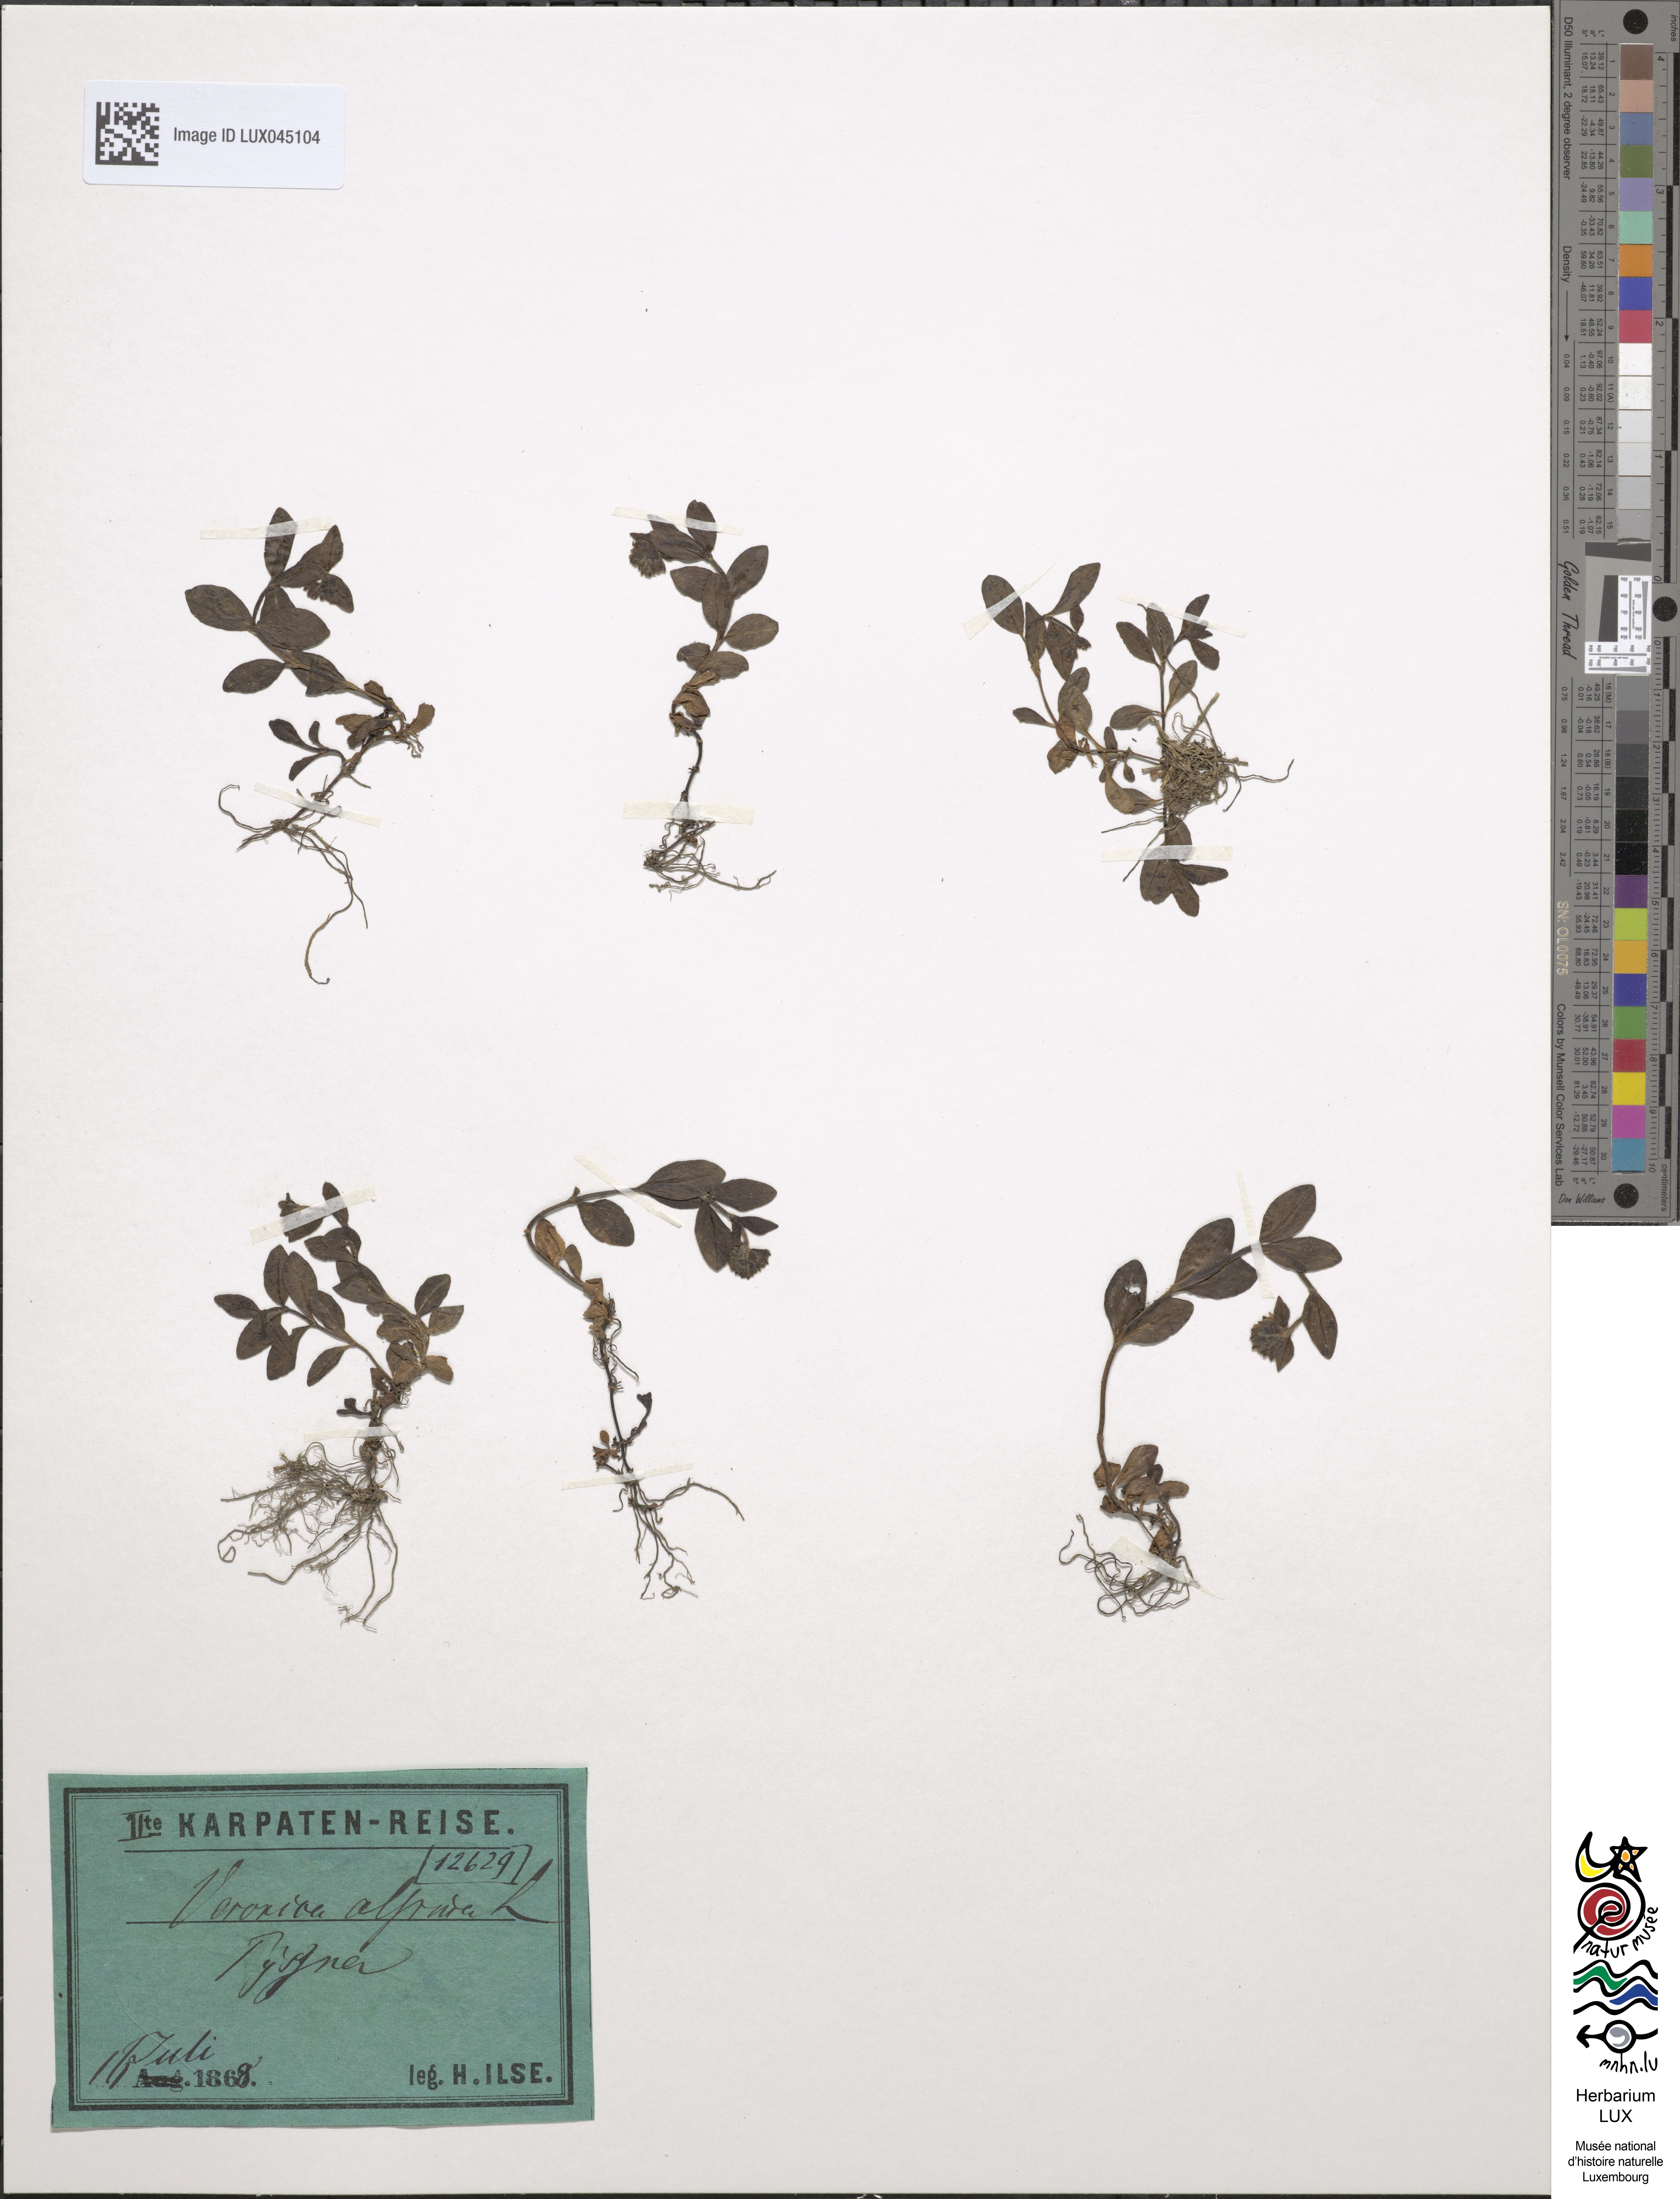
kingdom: Plantae
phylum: Tracheophyta
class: Magnoliopsida
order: Lamiales
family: Plantaginaceae
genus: Veronica
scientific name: Veronica alpina
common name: Alpine speedwell
